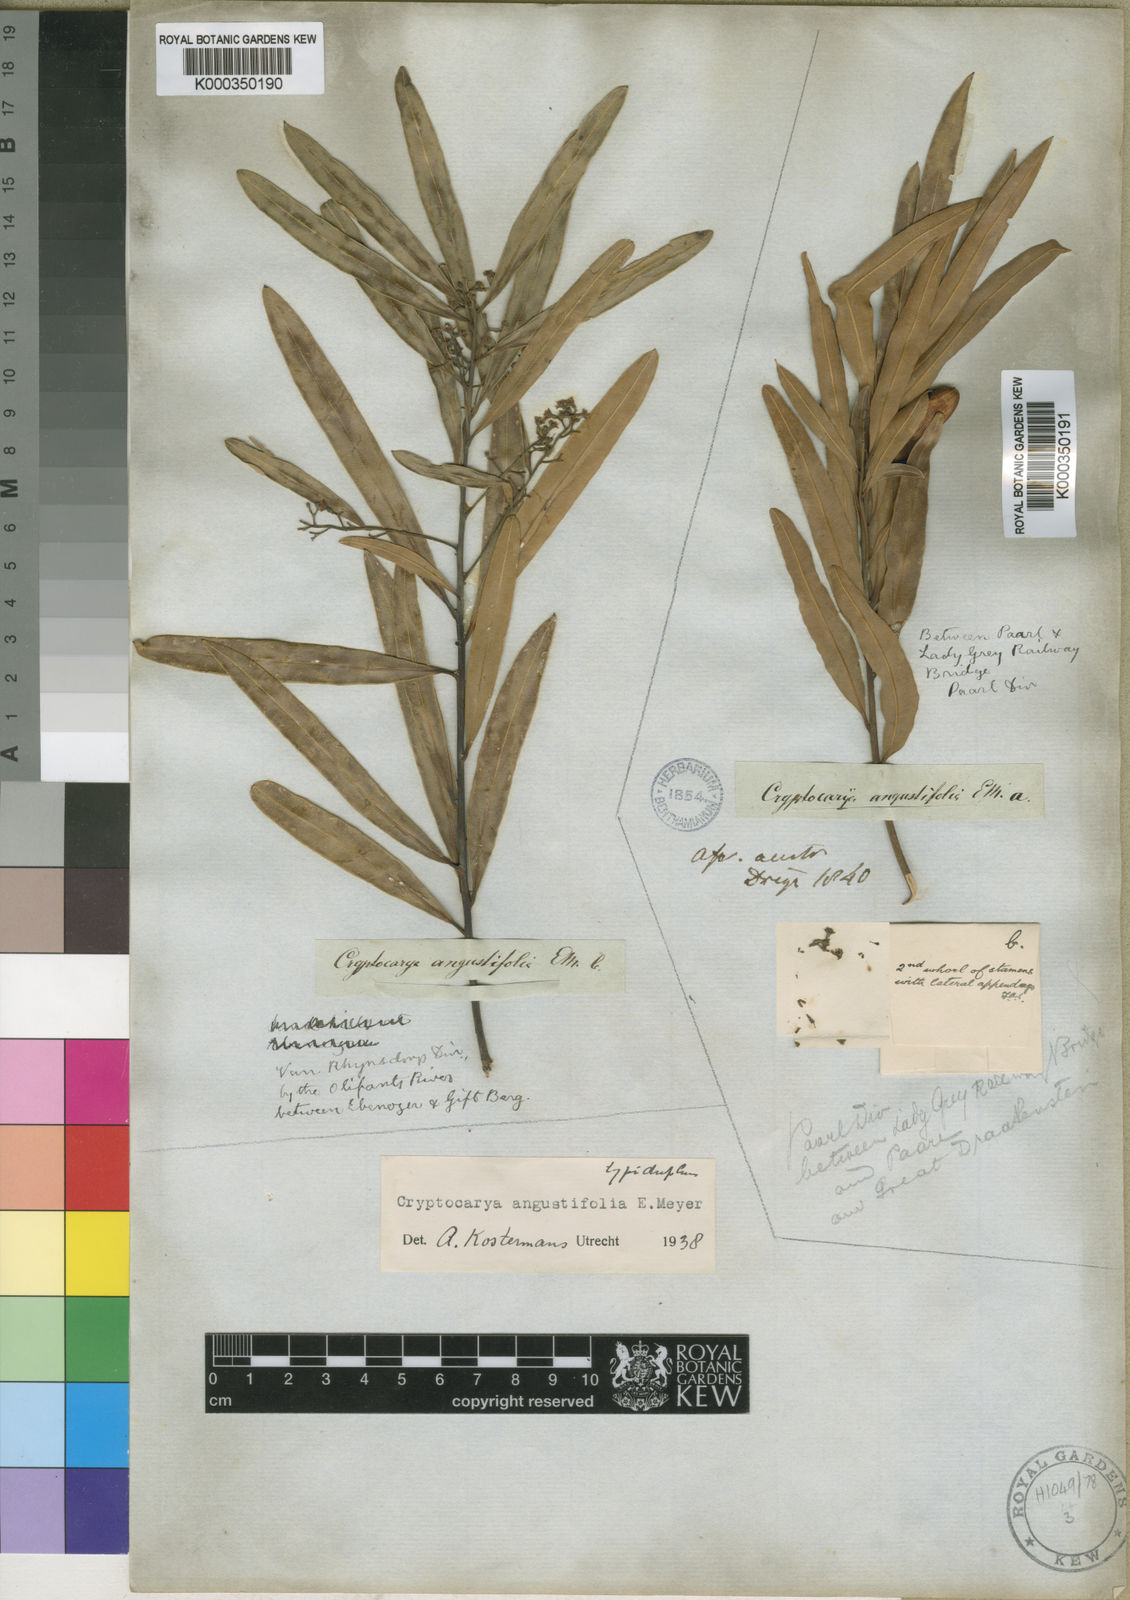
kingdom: Plantae
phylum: Tracheophyta
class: Magnoliopsida
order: Laurales
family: Lauraceae
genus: Cryptocarya
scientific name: Cryptocarya
